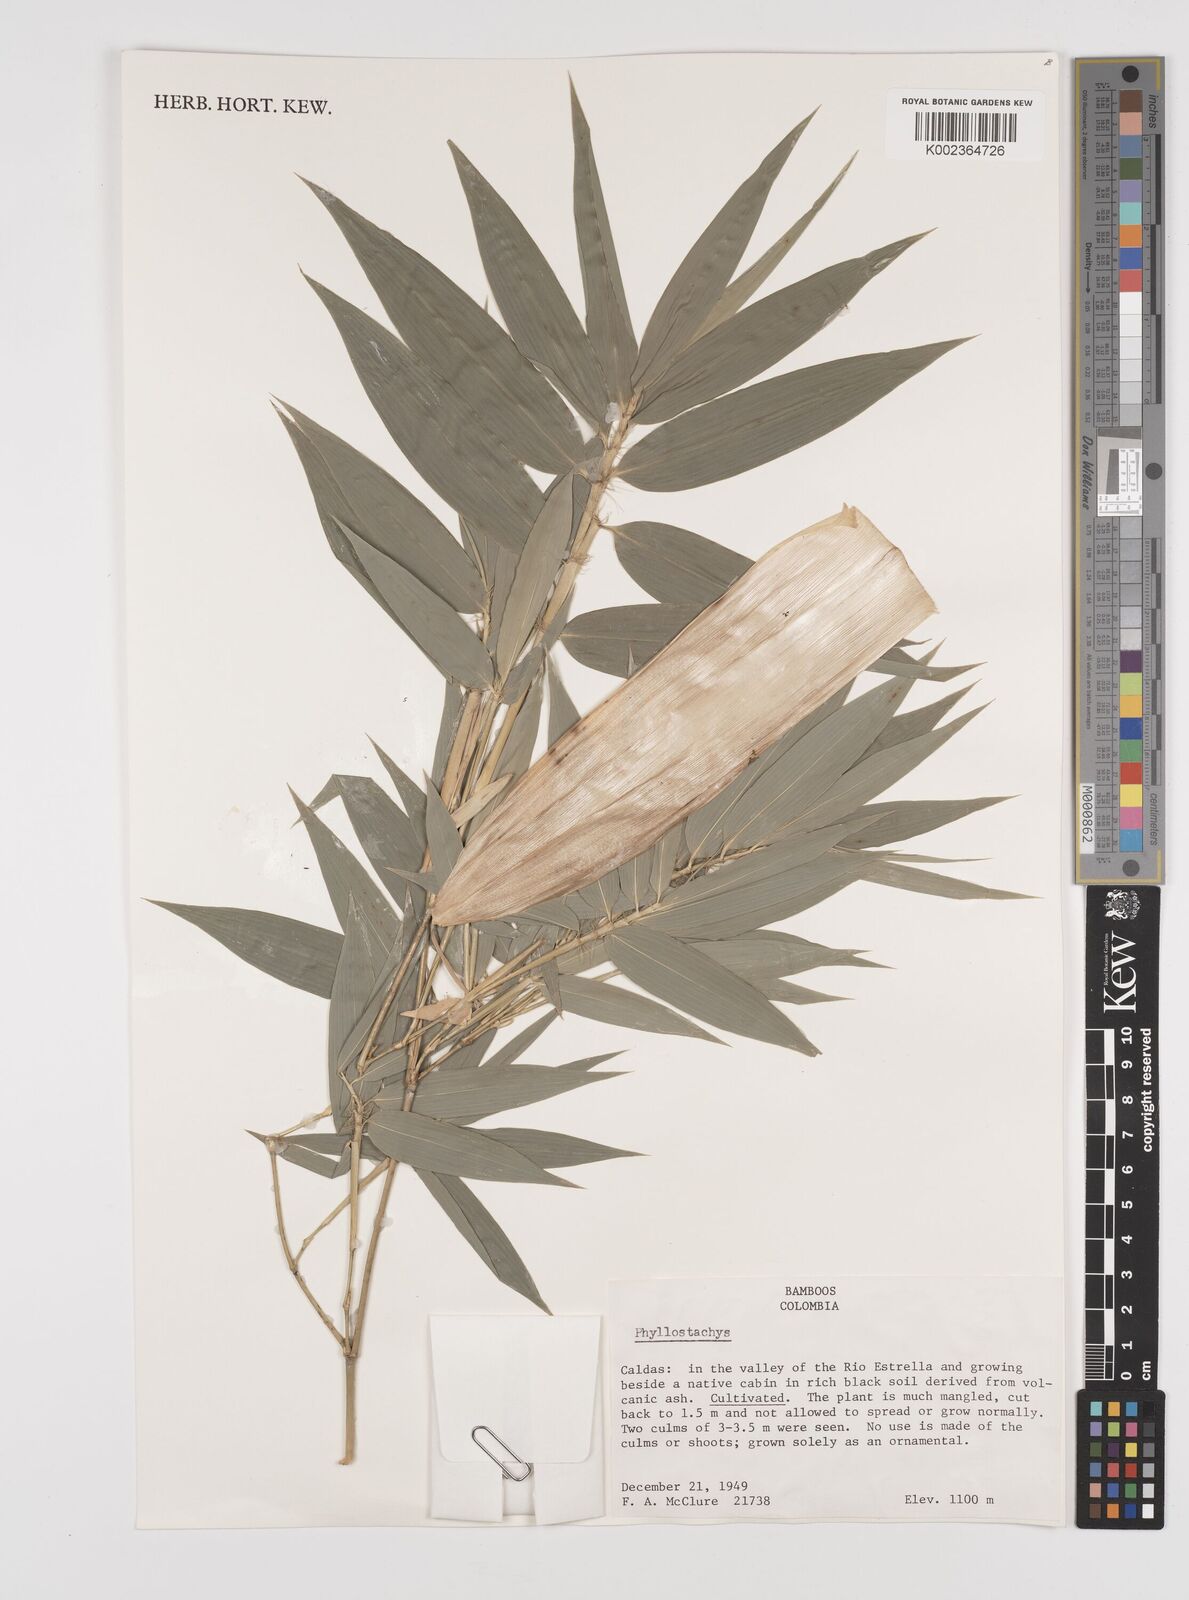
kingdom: Plantae
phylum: Tracheophyta
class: Liliopsida
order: Poales
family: Poaceae
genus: Phyllostachys
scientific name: Phyllostachys aurea
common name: Golden bamboo
